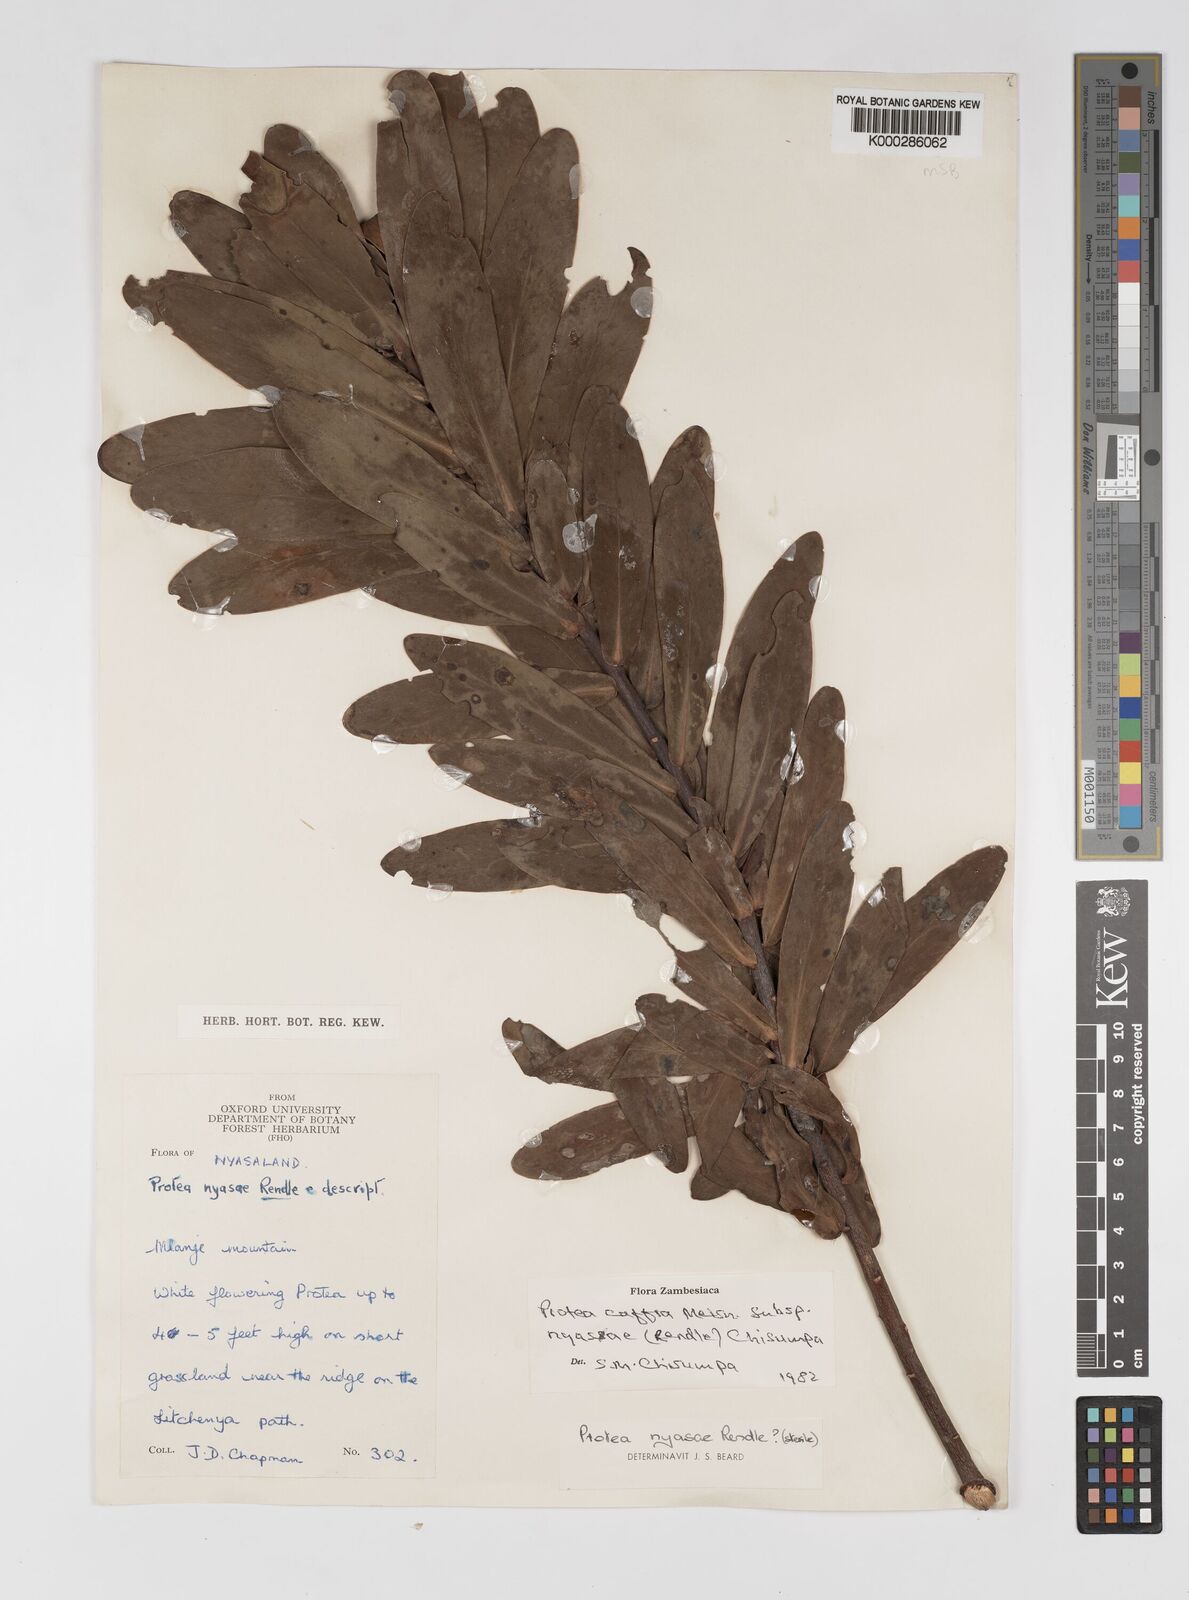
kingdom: Plantae
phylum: Tracheophyta
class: Magnoliopsida
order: Proteales
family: Proteaceae
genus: Protea
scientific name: Protea caffra
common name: Common sugarbush
